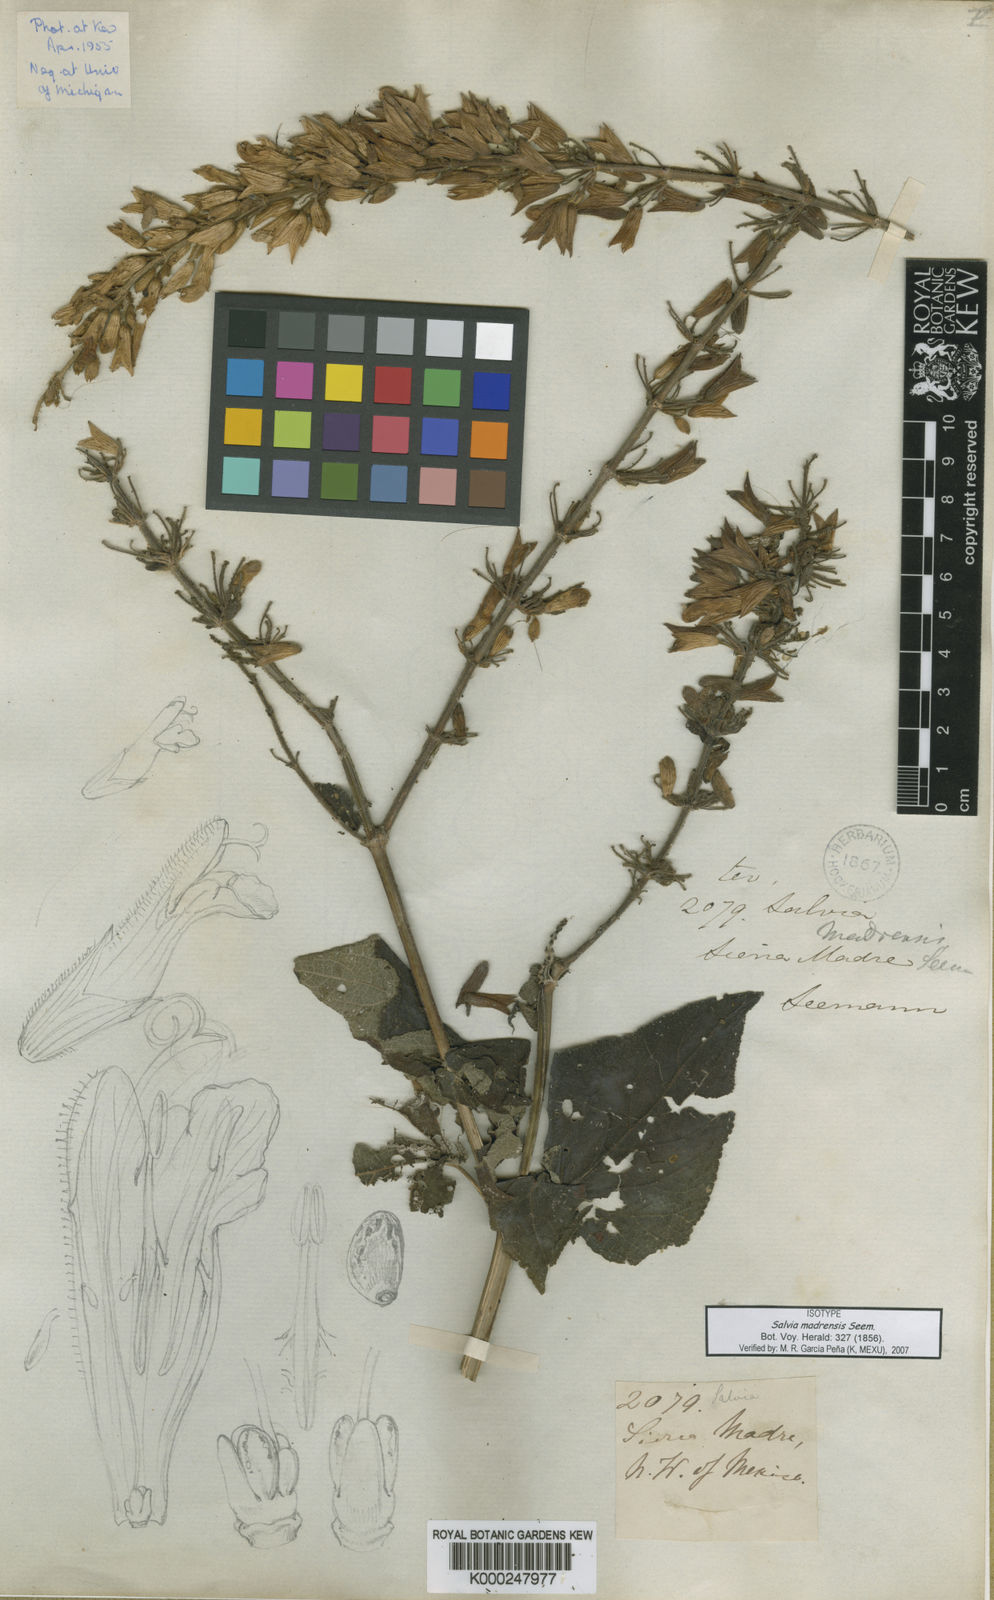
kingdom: Plantae
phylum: Tracheophyta
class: Magnoliopsida
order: Lamiales
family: Lamiaceae
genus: Salvia
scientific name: Salvia madrensis
